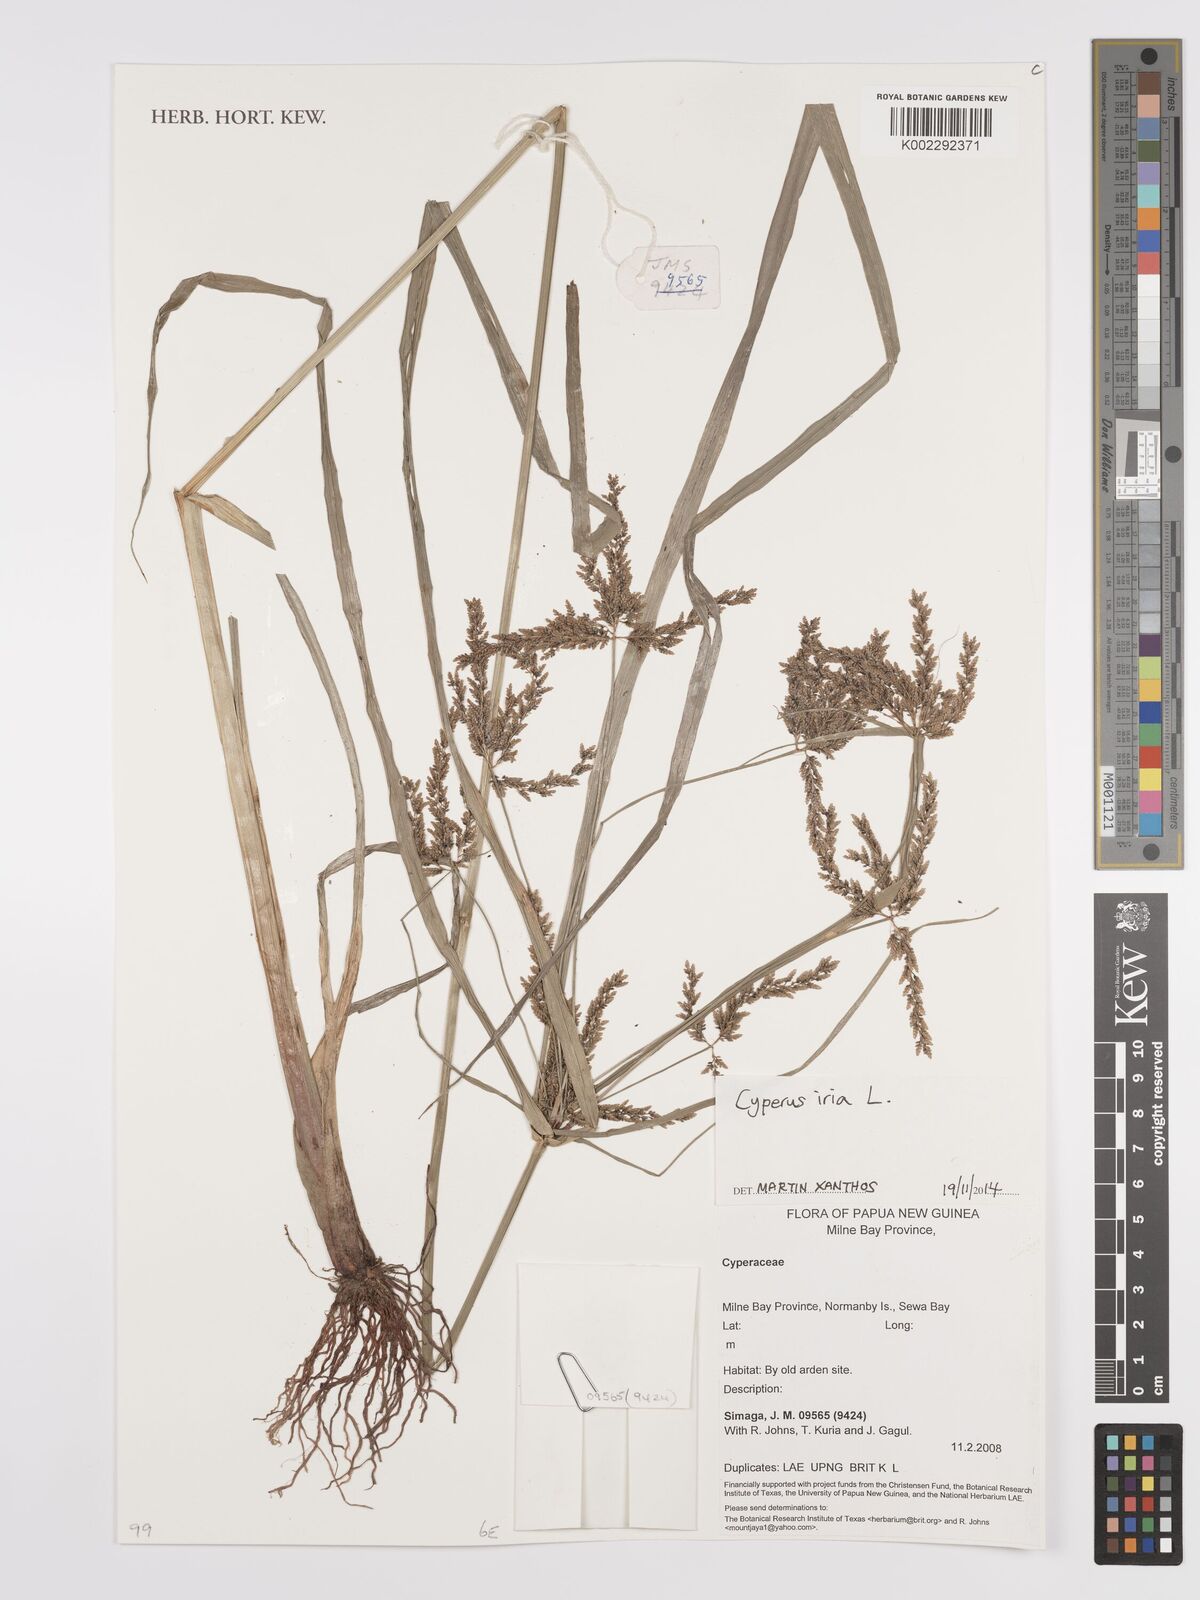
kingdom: Plantae
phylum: Tracheophyta
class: Liliopsida
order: Poales
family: Cyperaceae
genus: Cyperus
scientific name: Cyperus iria
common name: Ricefield flatsedge
